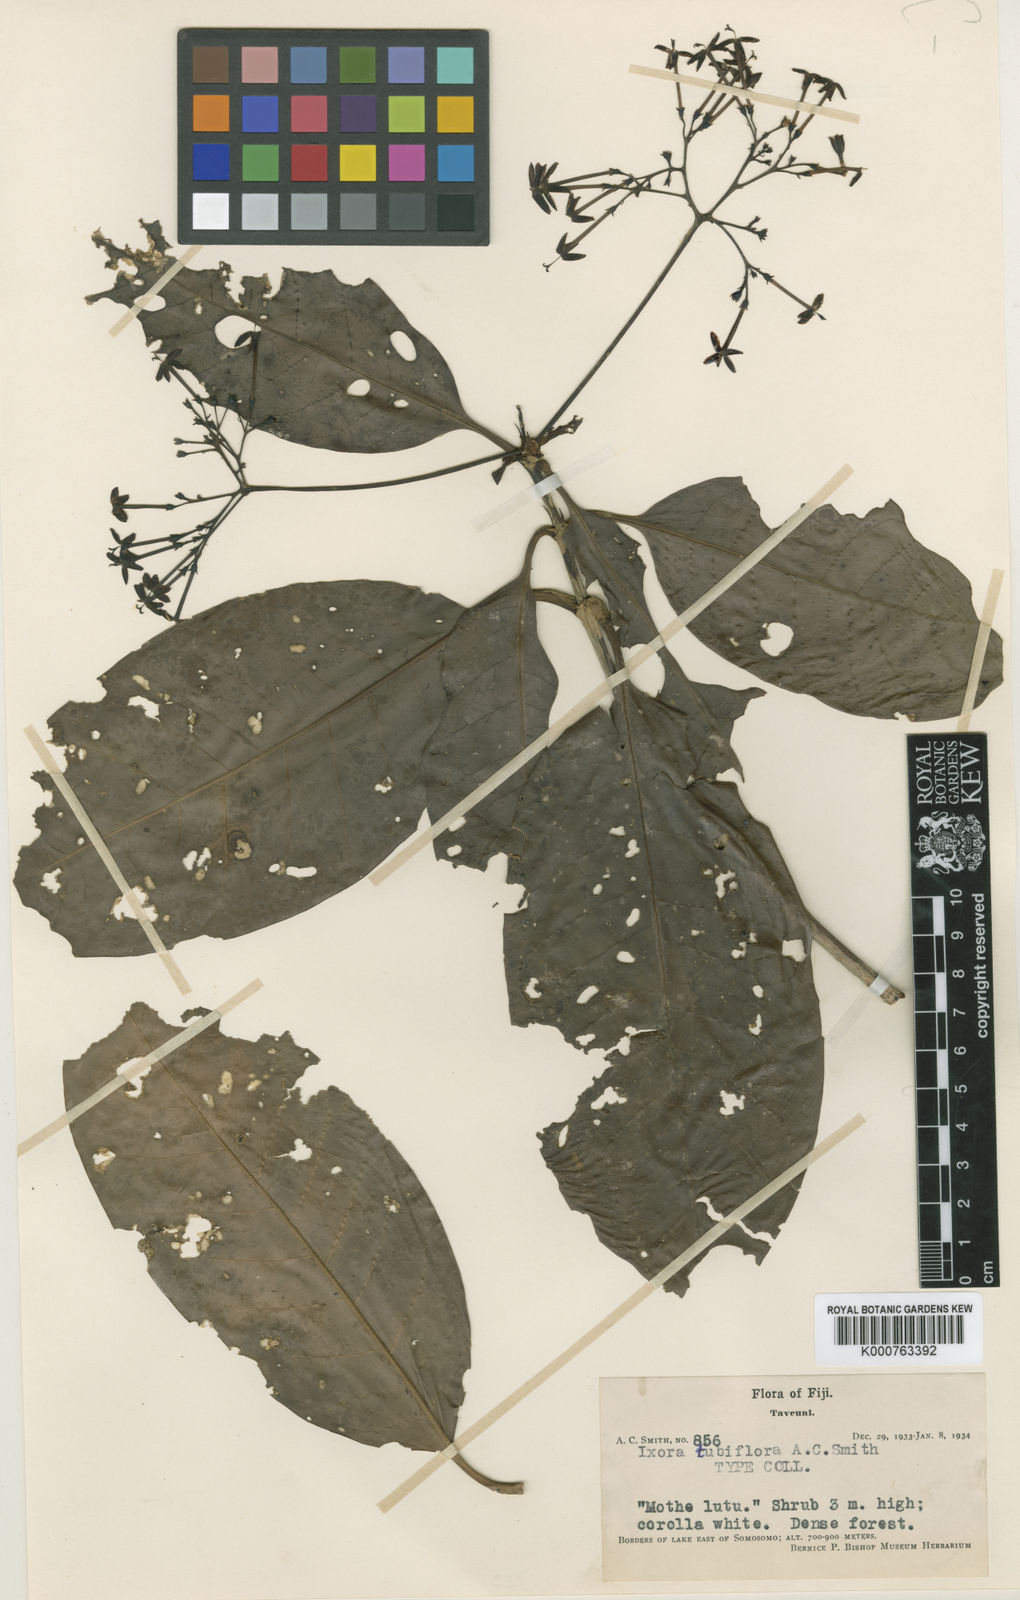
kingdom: Plantae
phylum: Tracheophyta
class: Magnoliopsida
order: Gentianales
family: Rubiaceae
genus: Ixora
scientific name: Ixora tubiflora
